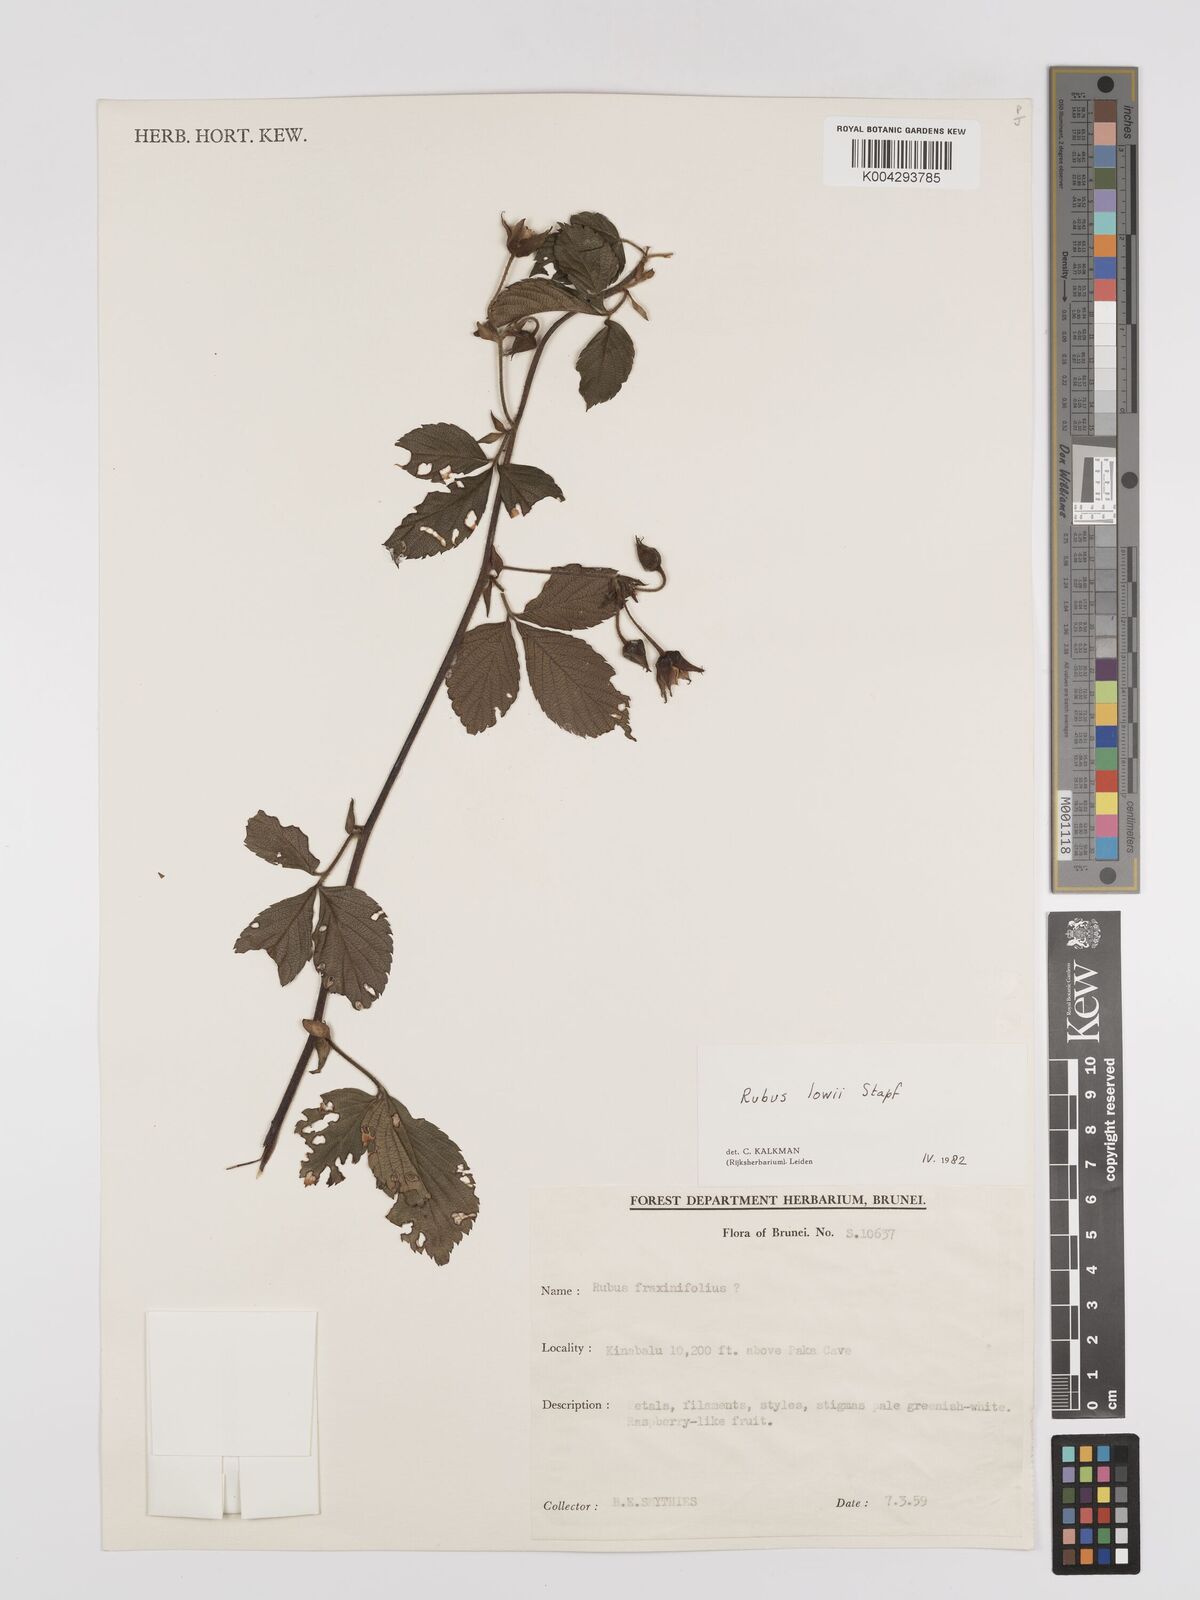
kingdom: Plantae
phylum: Tracheophyta
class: Magnoliopsida
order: Rosales
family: Rosaceae
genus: Rubus
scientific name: Rubus lowii
